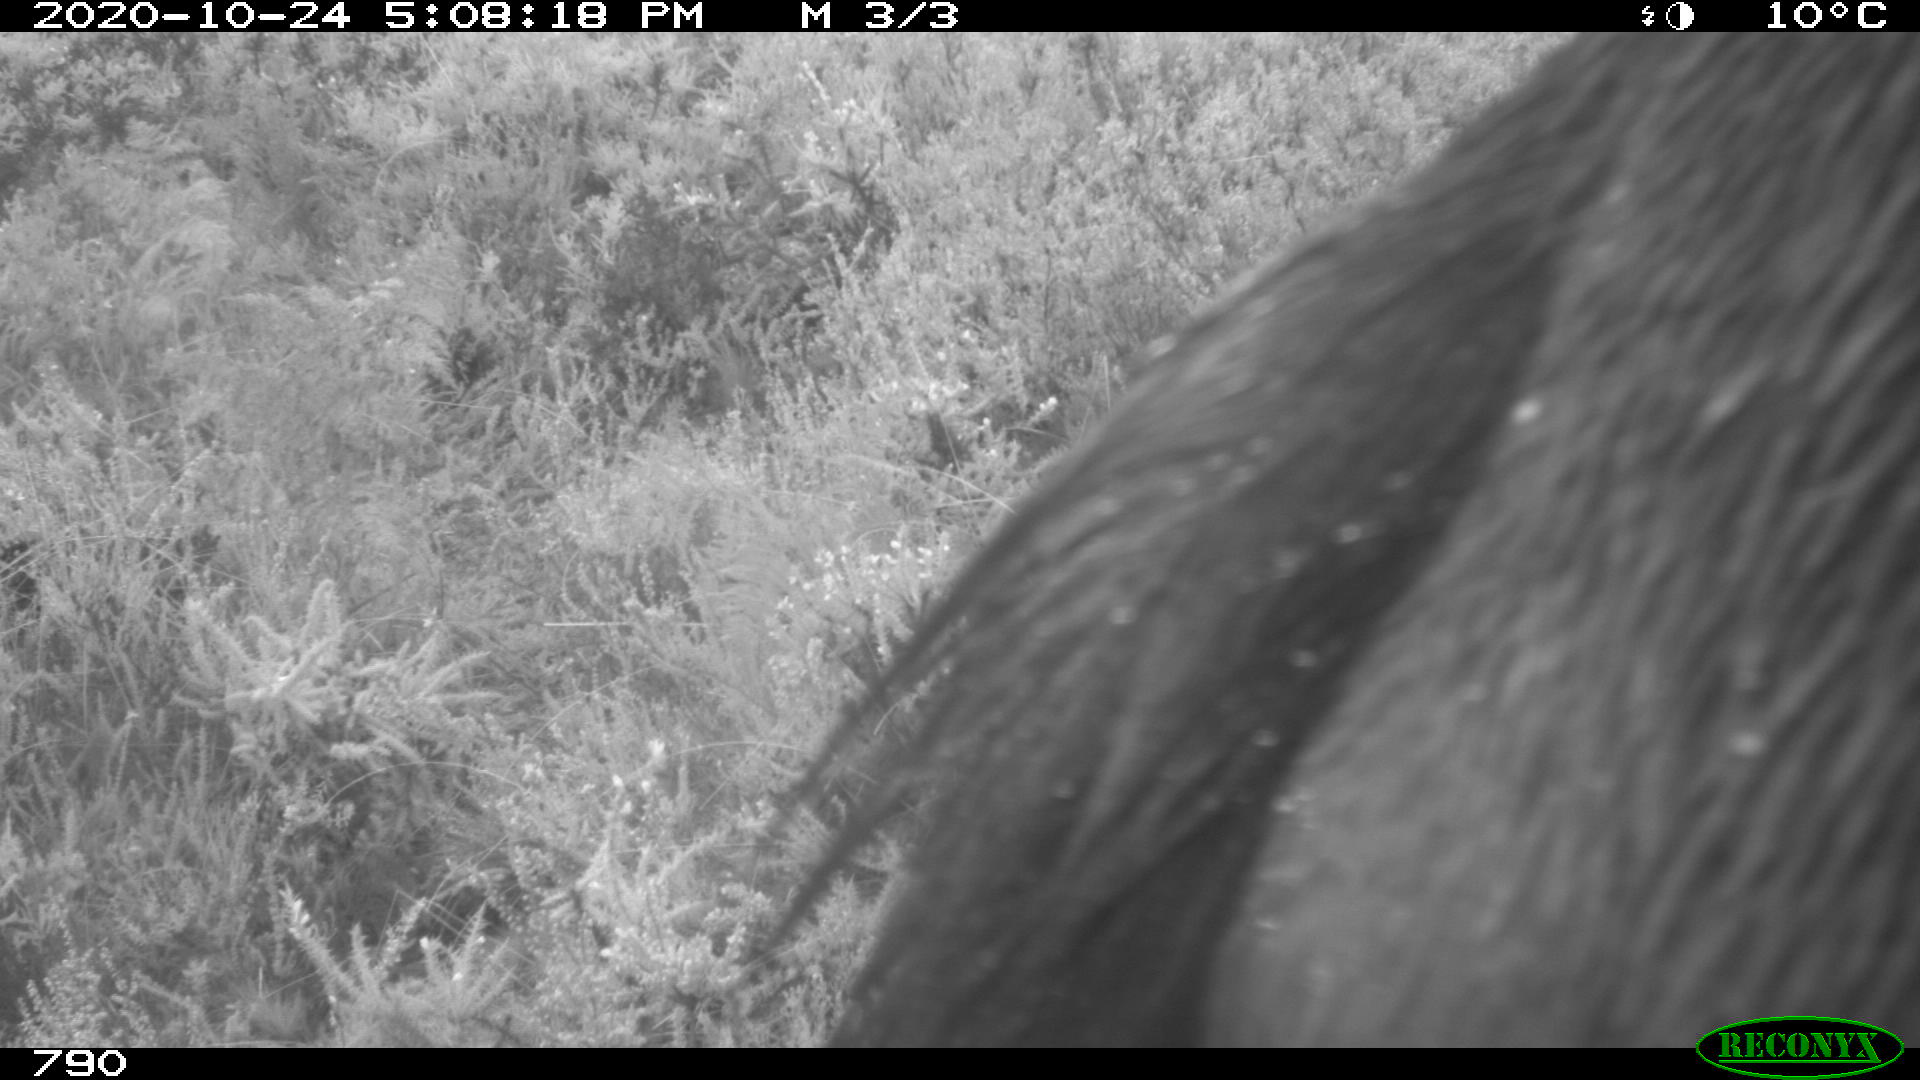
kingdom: Animalia
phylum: Chordata
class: Mammalia
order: Perissodactyla
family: Equidae
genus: Equus
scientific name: Equus caballus
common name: Horse
